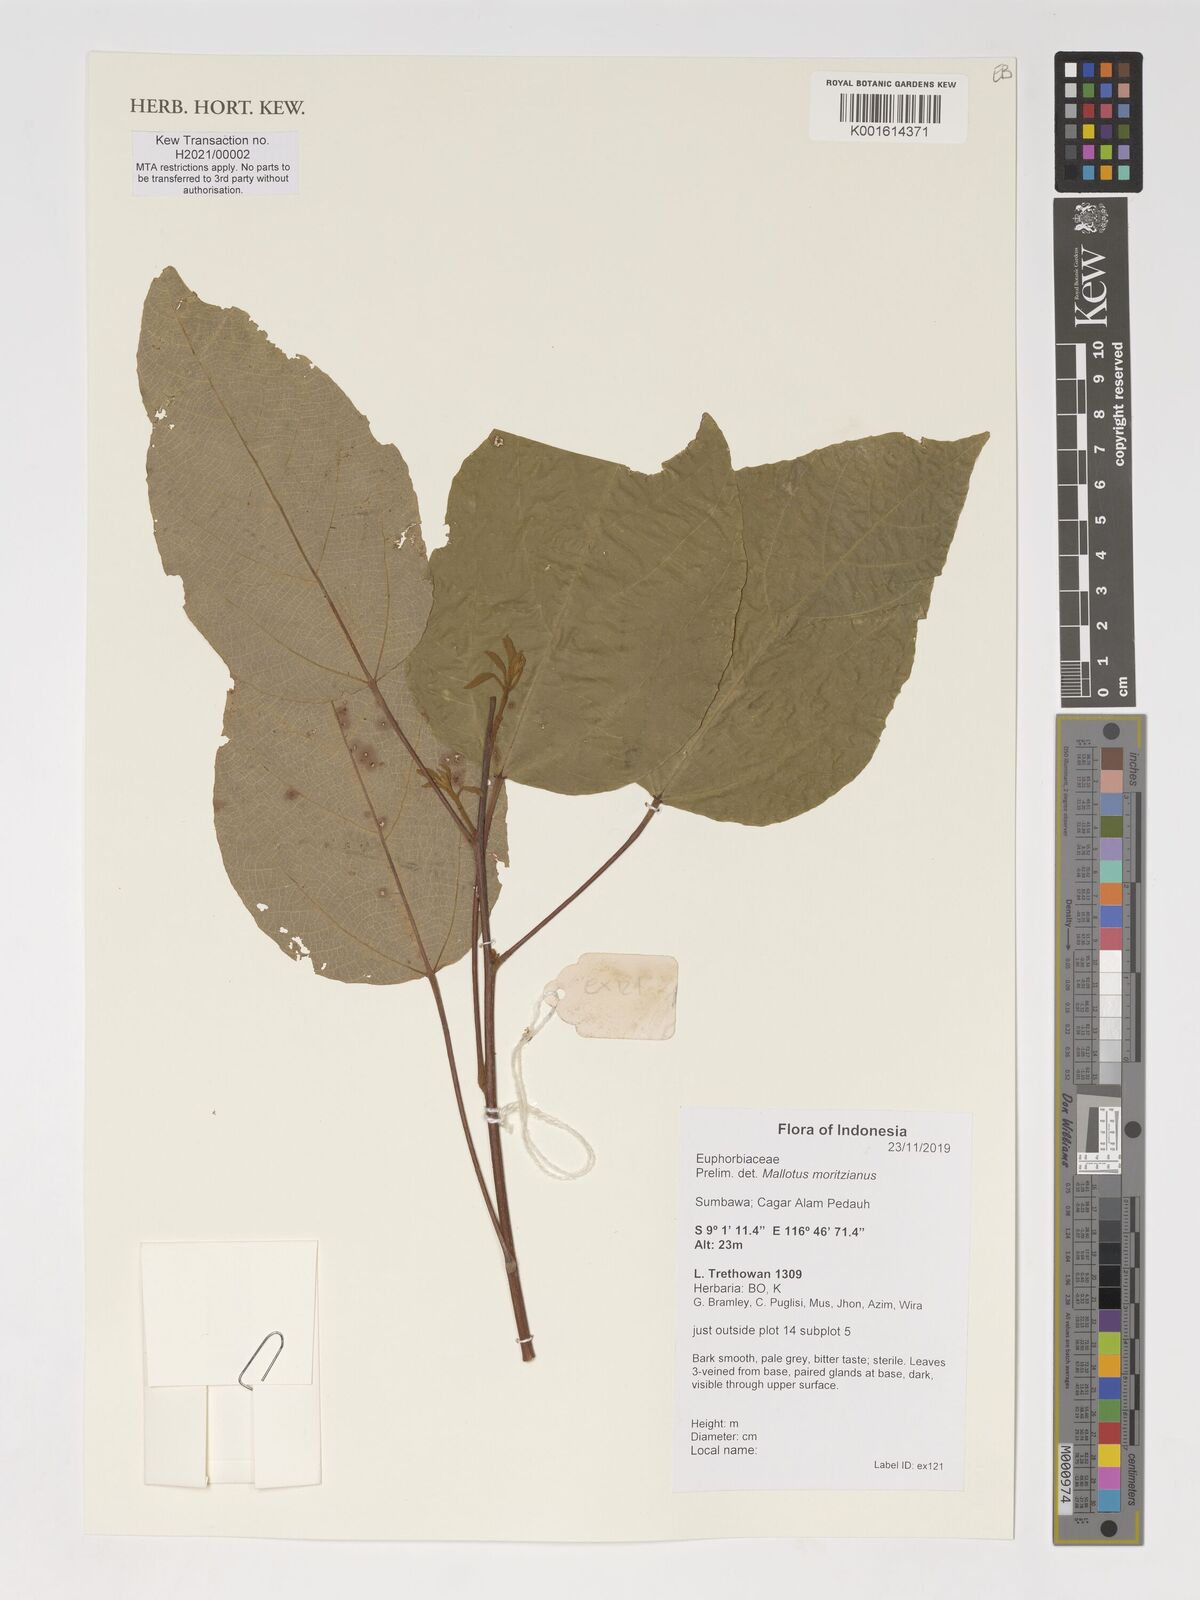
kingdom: Plantae
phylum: Tracheophyta
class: Magnoliopsida
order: Malpighiales
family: Euphorbiaceae
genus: Mallotus
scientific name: Mallotus rufidulus
